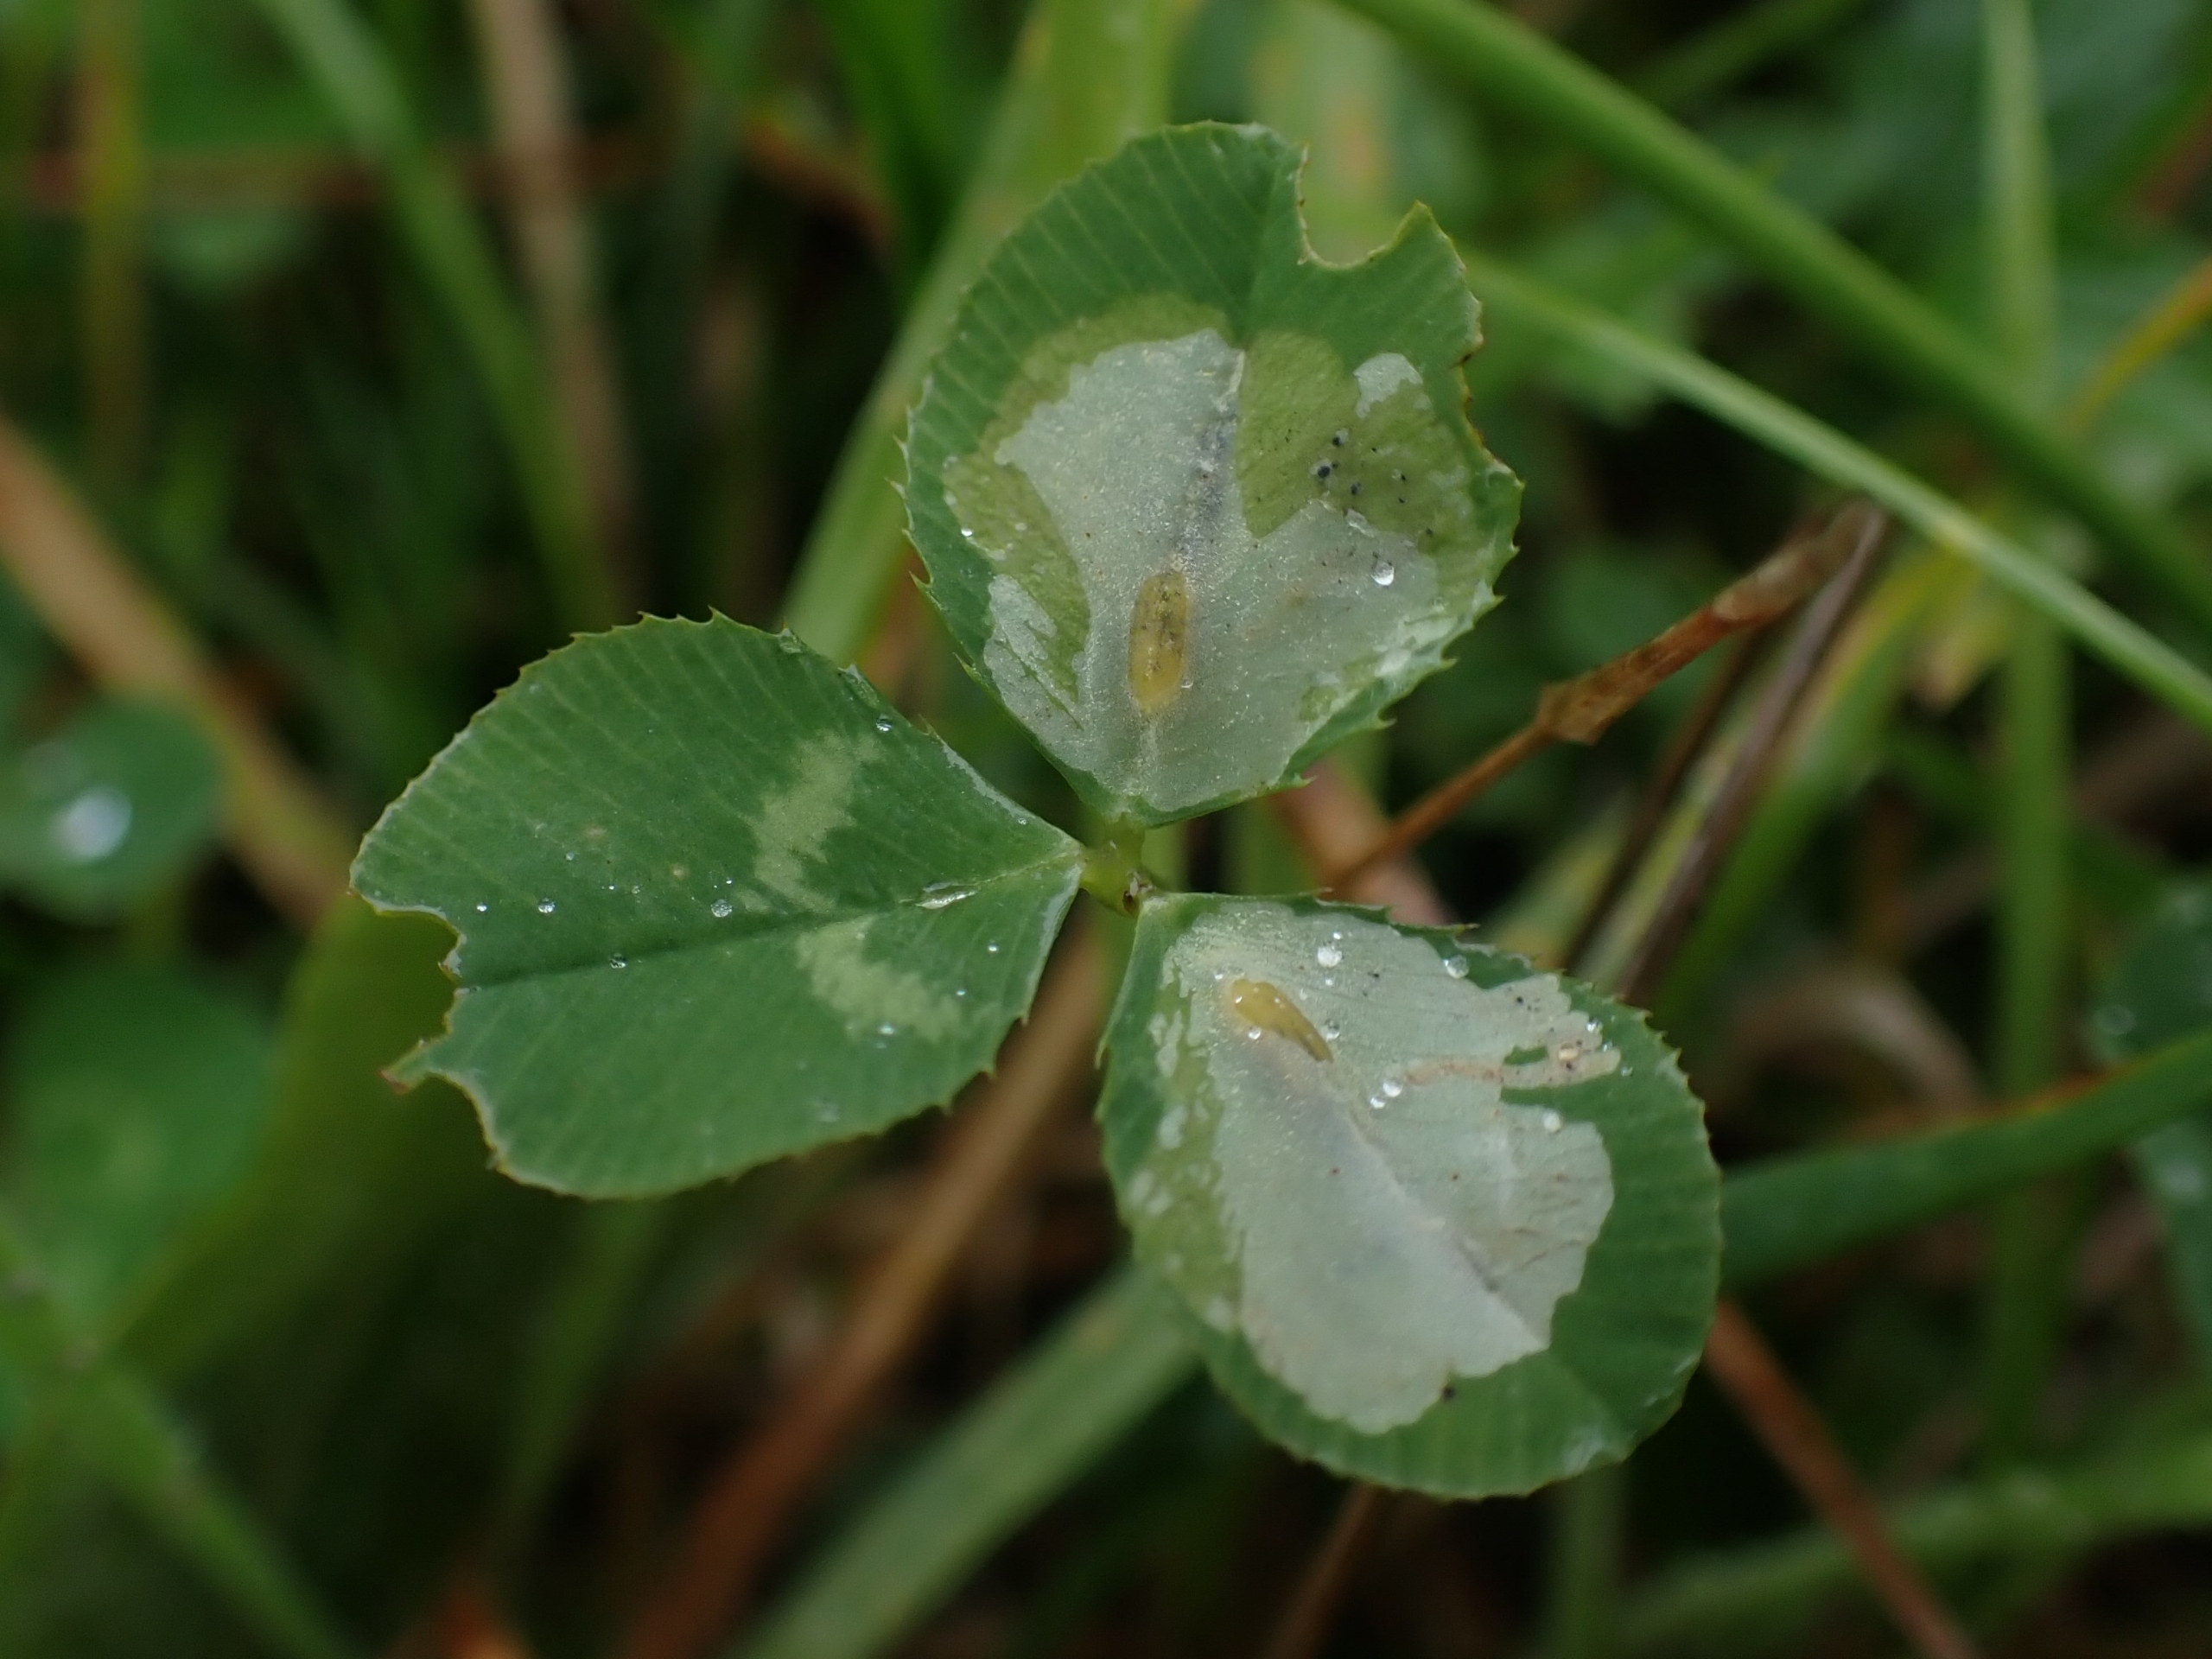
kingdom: Animalia
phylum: Arthropoda
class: Insecta
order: Diptera
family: Agromyzidae
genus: Agromyza
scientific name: Agromyza nana
